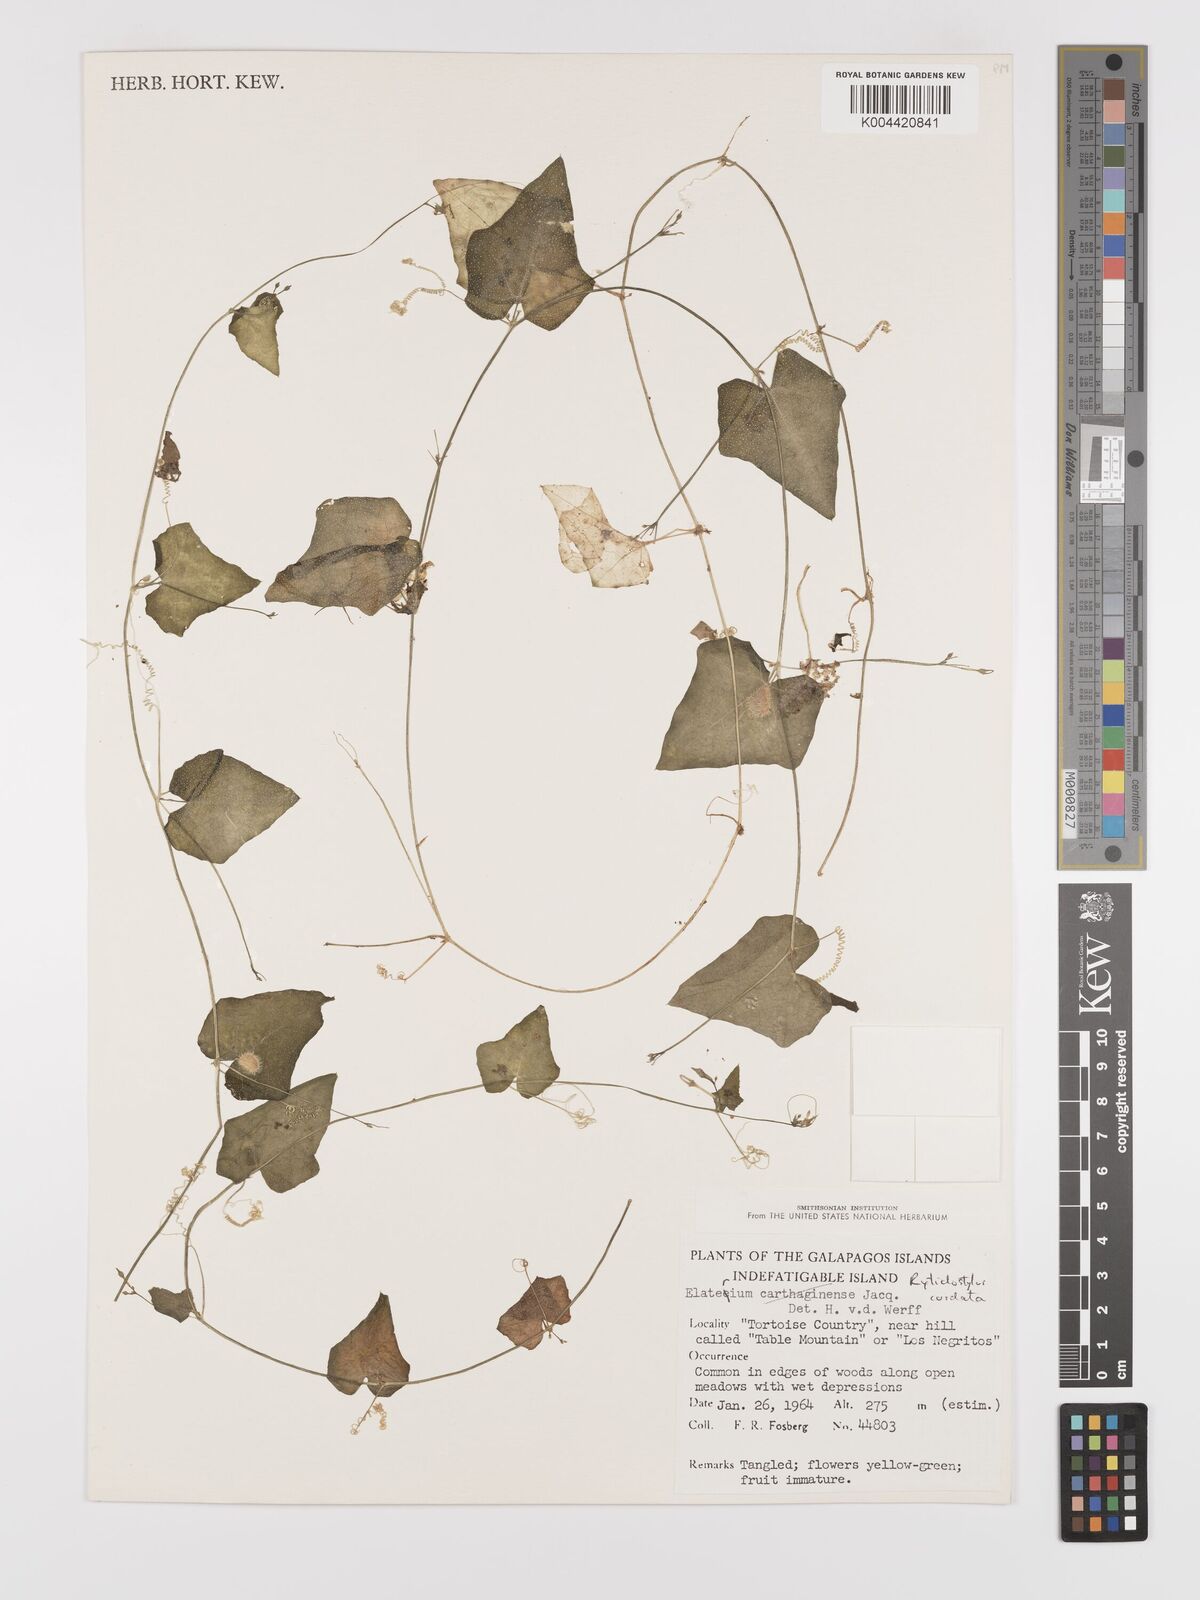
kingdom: Plantae
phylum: Tracheophyta
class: Magnoliopsida
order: Cucurbitales
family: Cucurbitaceae
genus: Cyclanthera
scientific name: Cyclanthera carthagenensis
